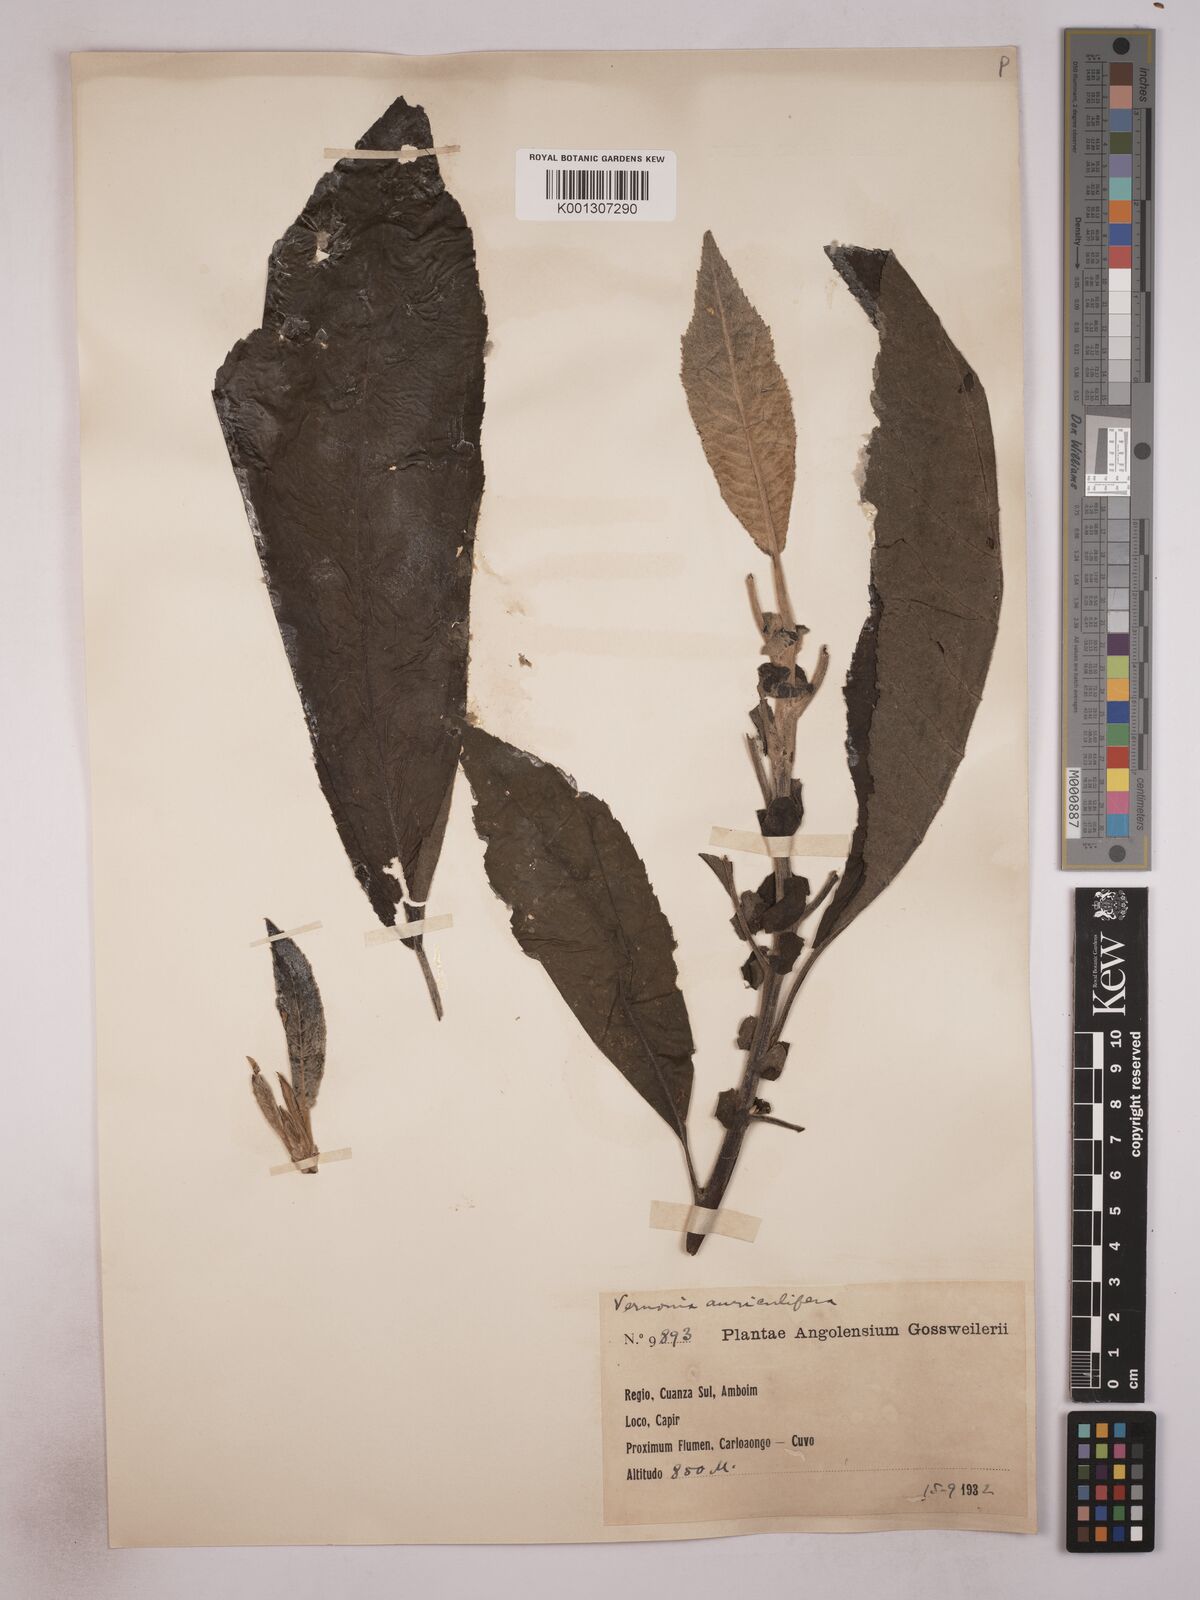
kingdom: Plantae
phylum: Tracheophyta
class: Magnoliopsida
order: Asterales
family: Asteraceae
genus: Gymnanthemum
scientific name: Gymnanthemum auriculiferum
